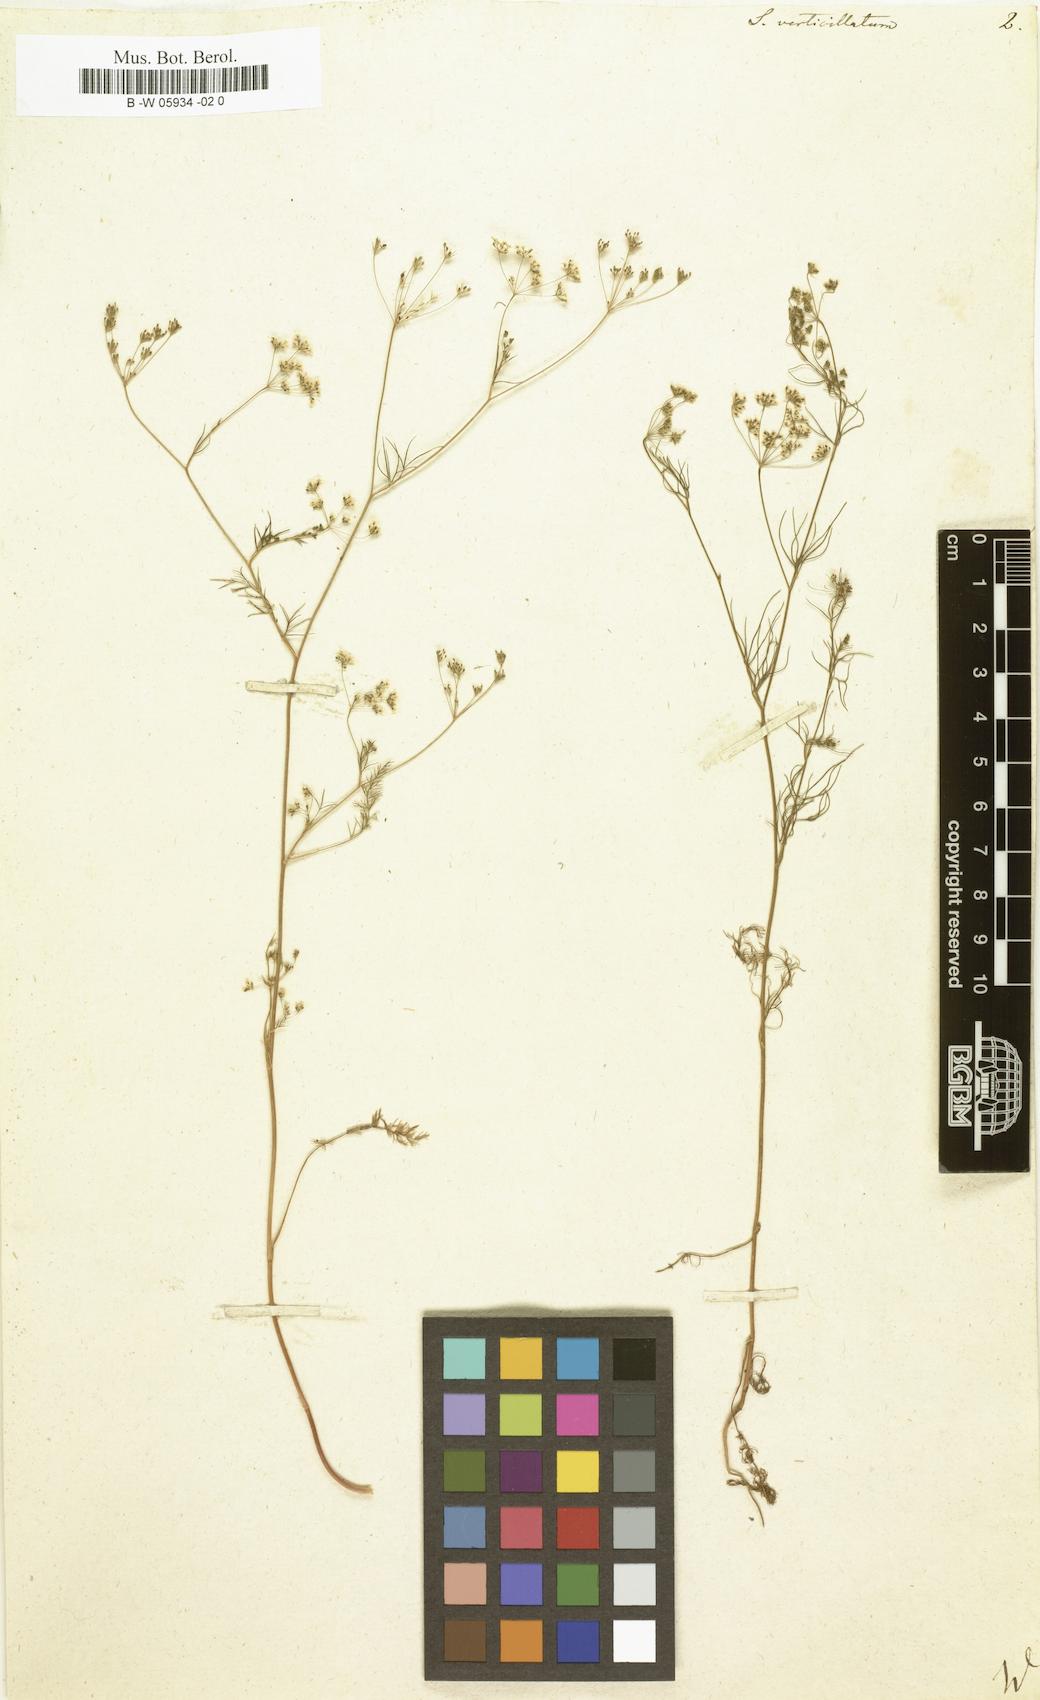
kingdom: Plantae
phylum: Tracheophyta
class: Magnoliopsida
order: Apiales
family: Apiaceae
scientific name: Apiaceae
